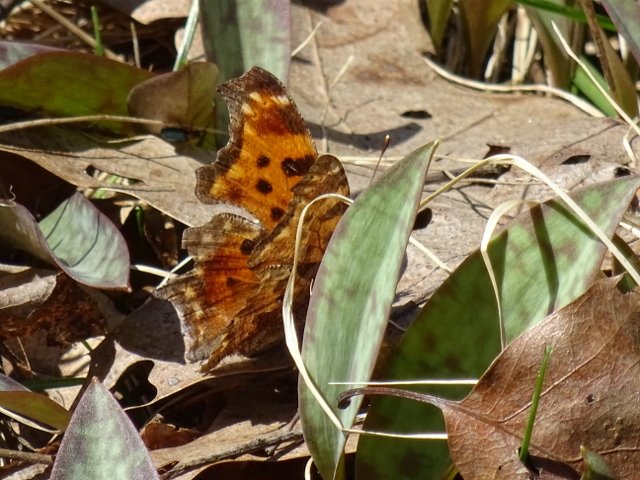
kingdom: Animalia
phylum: Arthropoda
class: Insecta
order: Lepidoptera
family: Nymphalidae
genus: Polygonia
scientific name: Polygonia comma
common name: Eastern Comma
